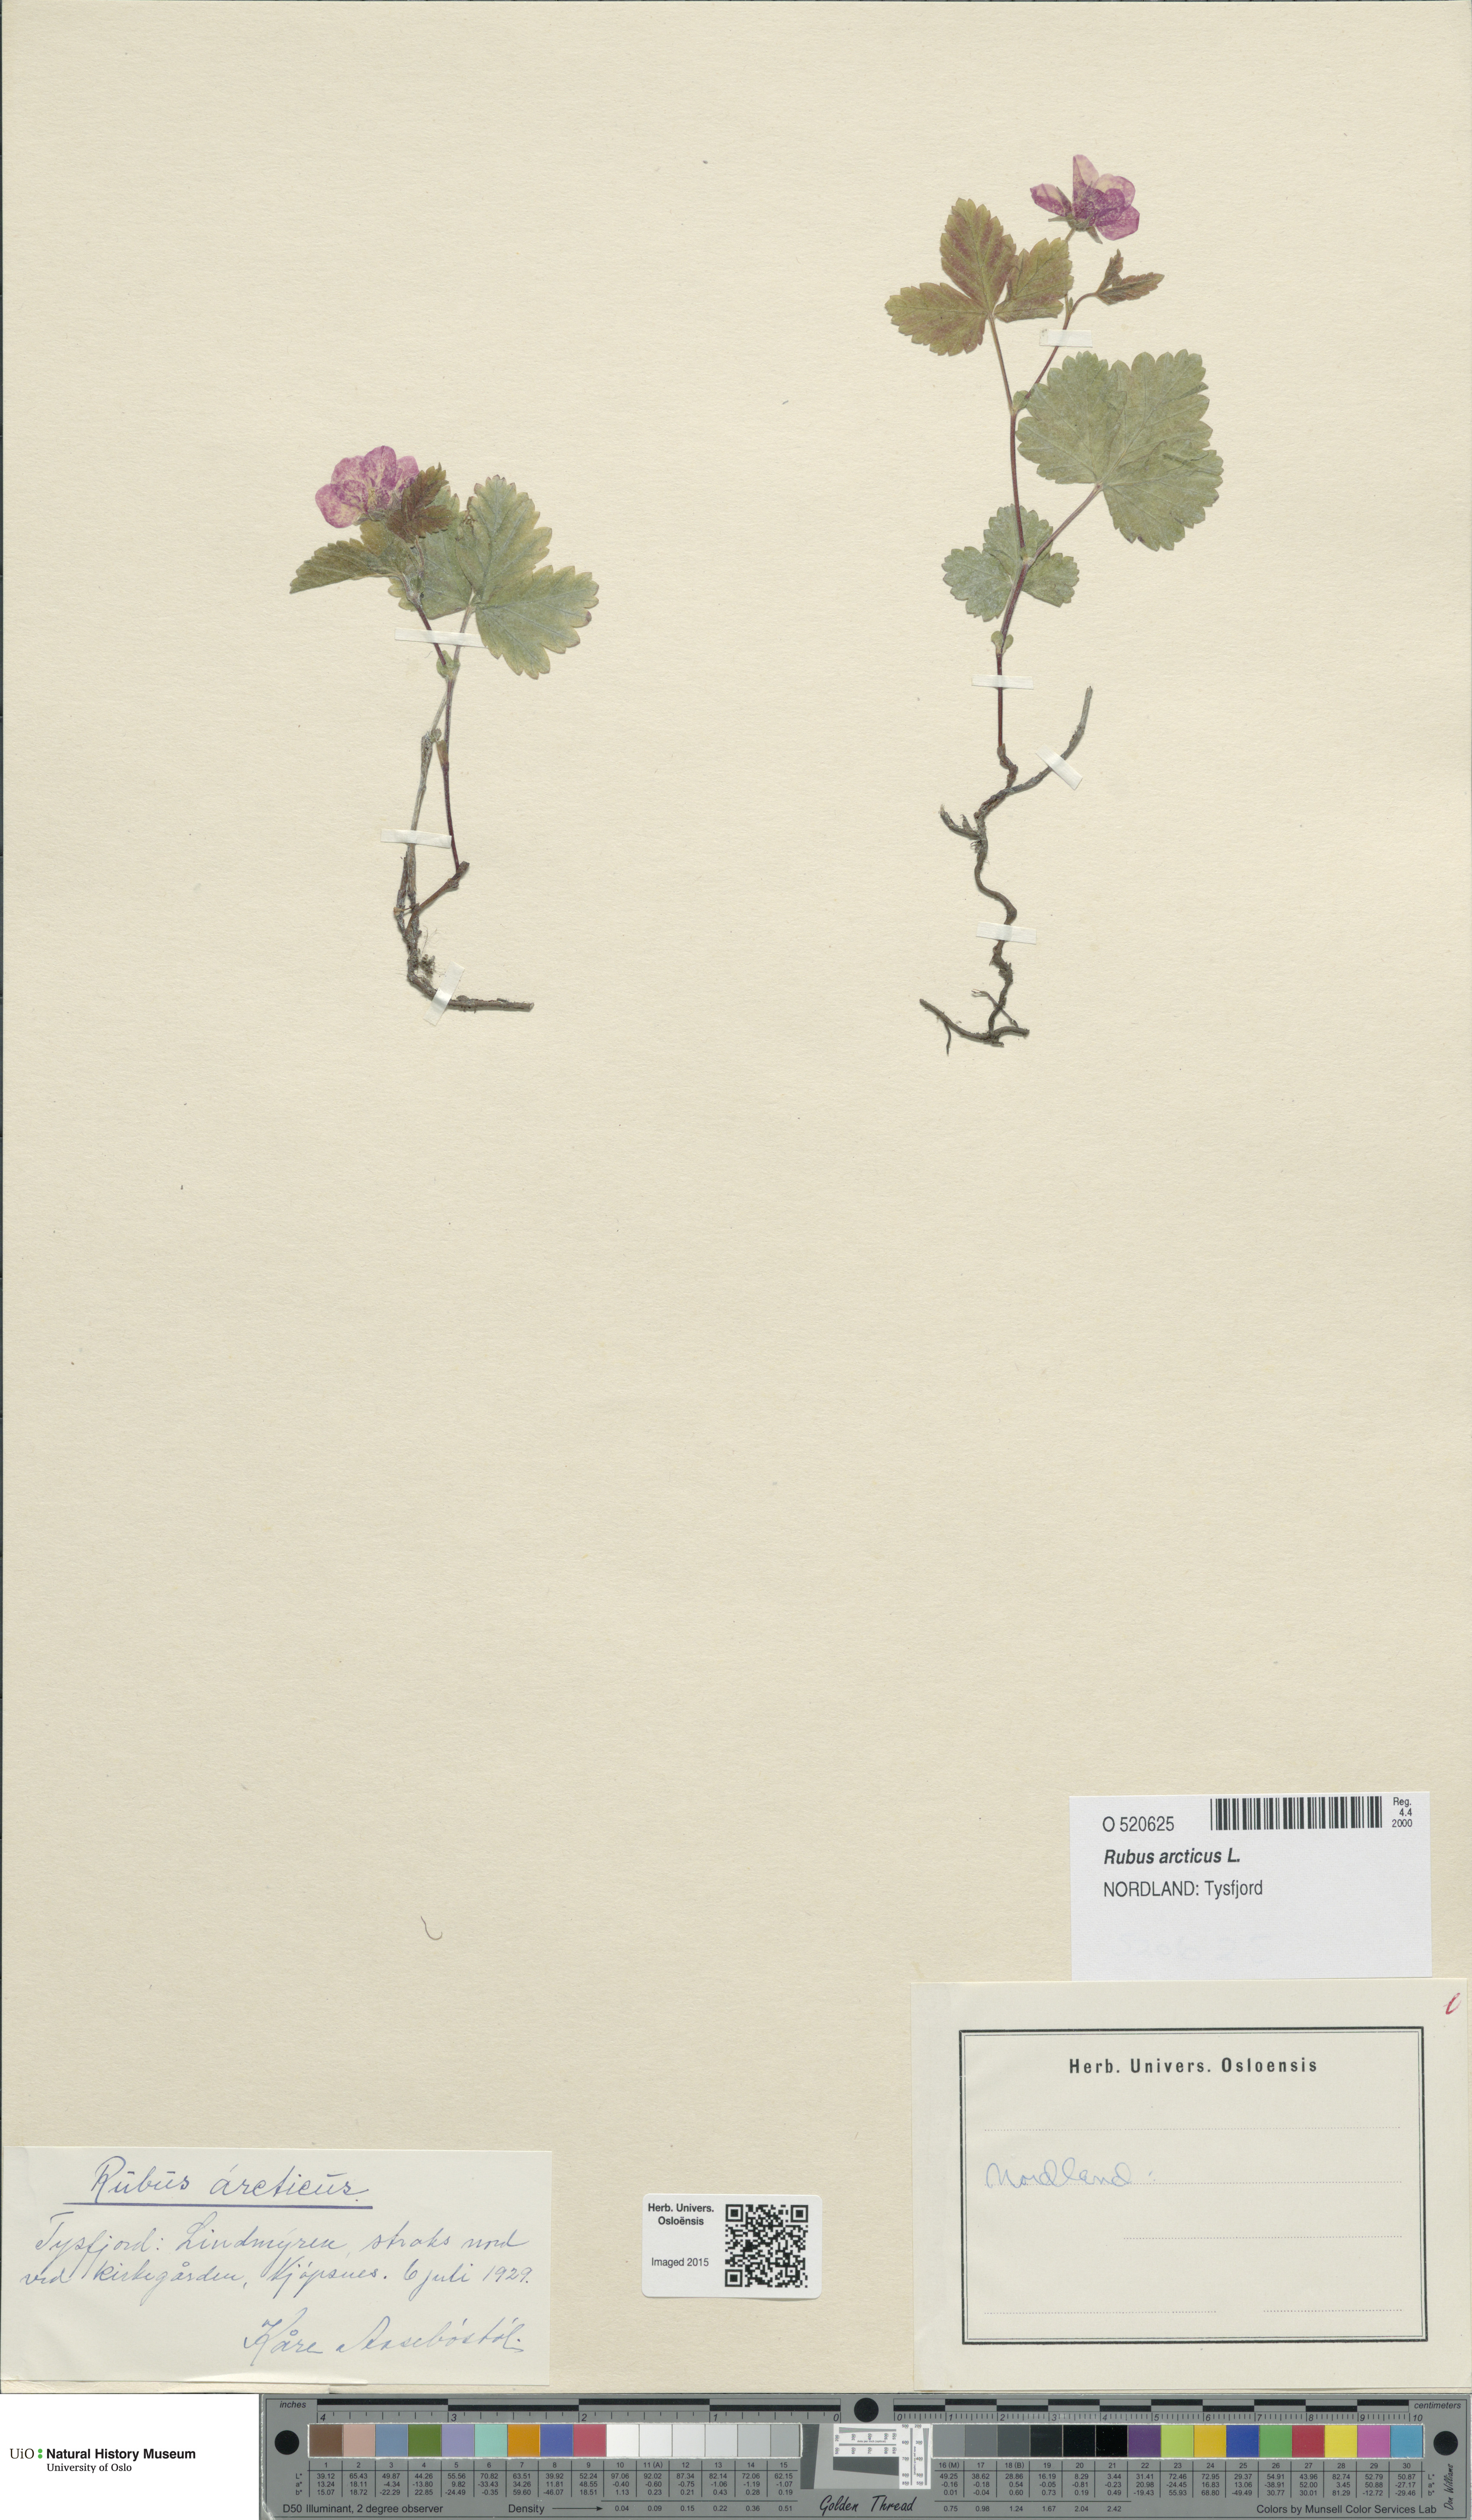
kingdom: Plantae
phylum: Tracheophyta
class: Magnoliopsida
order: Rosales
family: Rosaceae
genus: Rubus
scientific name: Rubus arcticus
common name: Arctic bramble
